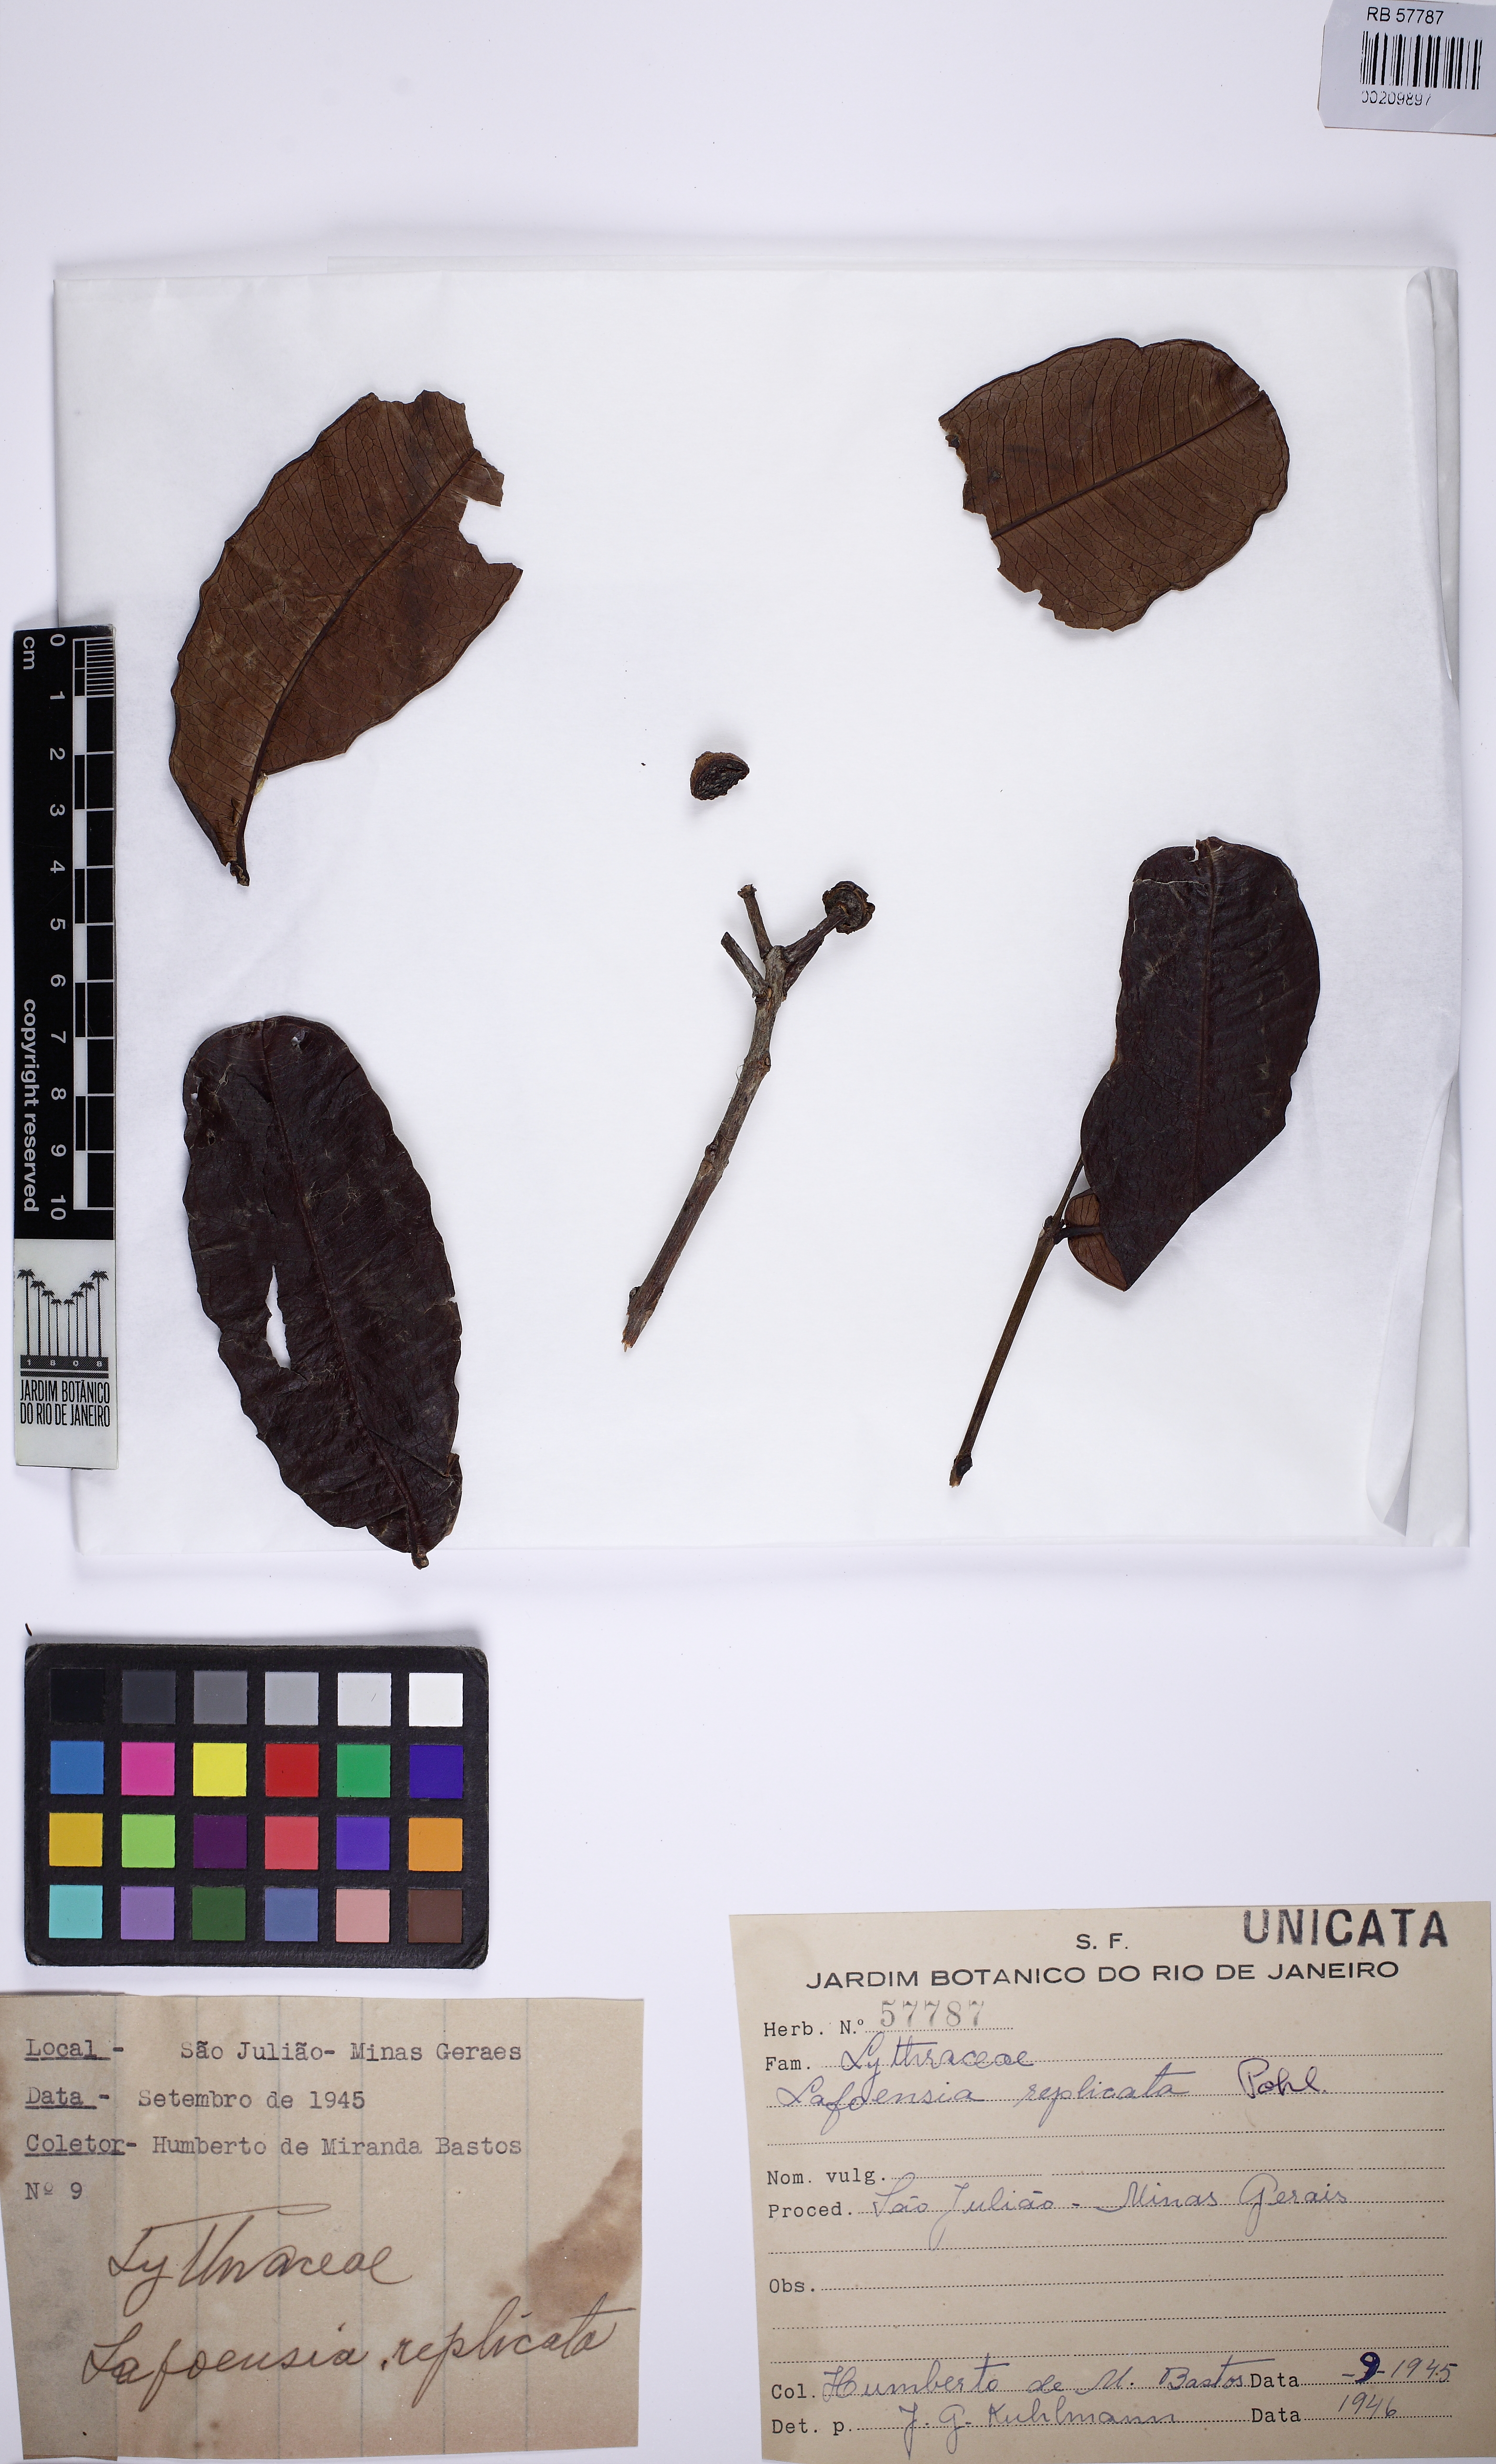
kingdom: Plantae
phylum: Tracheophyta
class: Magnoliopsida
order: Myrtales
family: Lythraceae
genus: Lafoensia
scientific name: Lafoensia vandelliana
